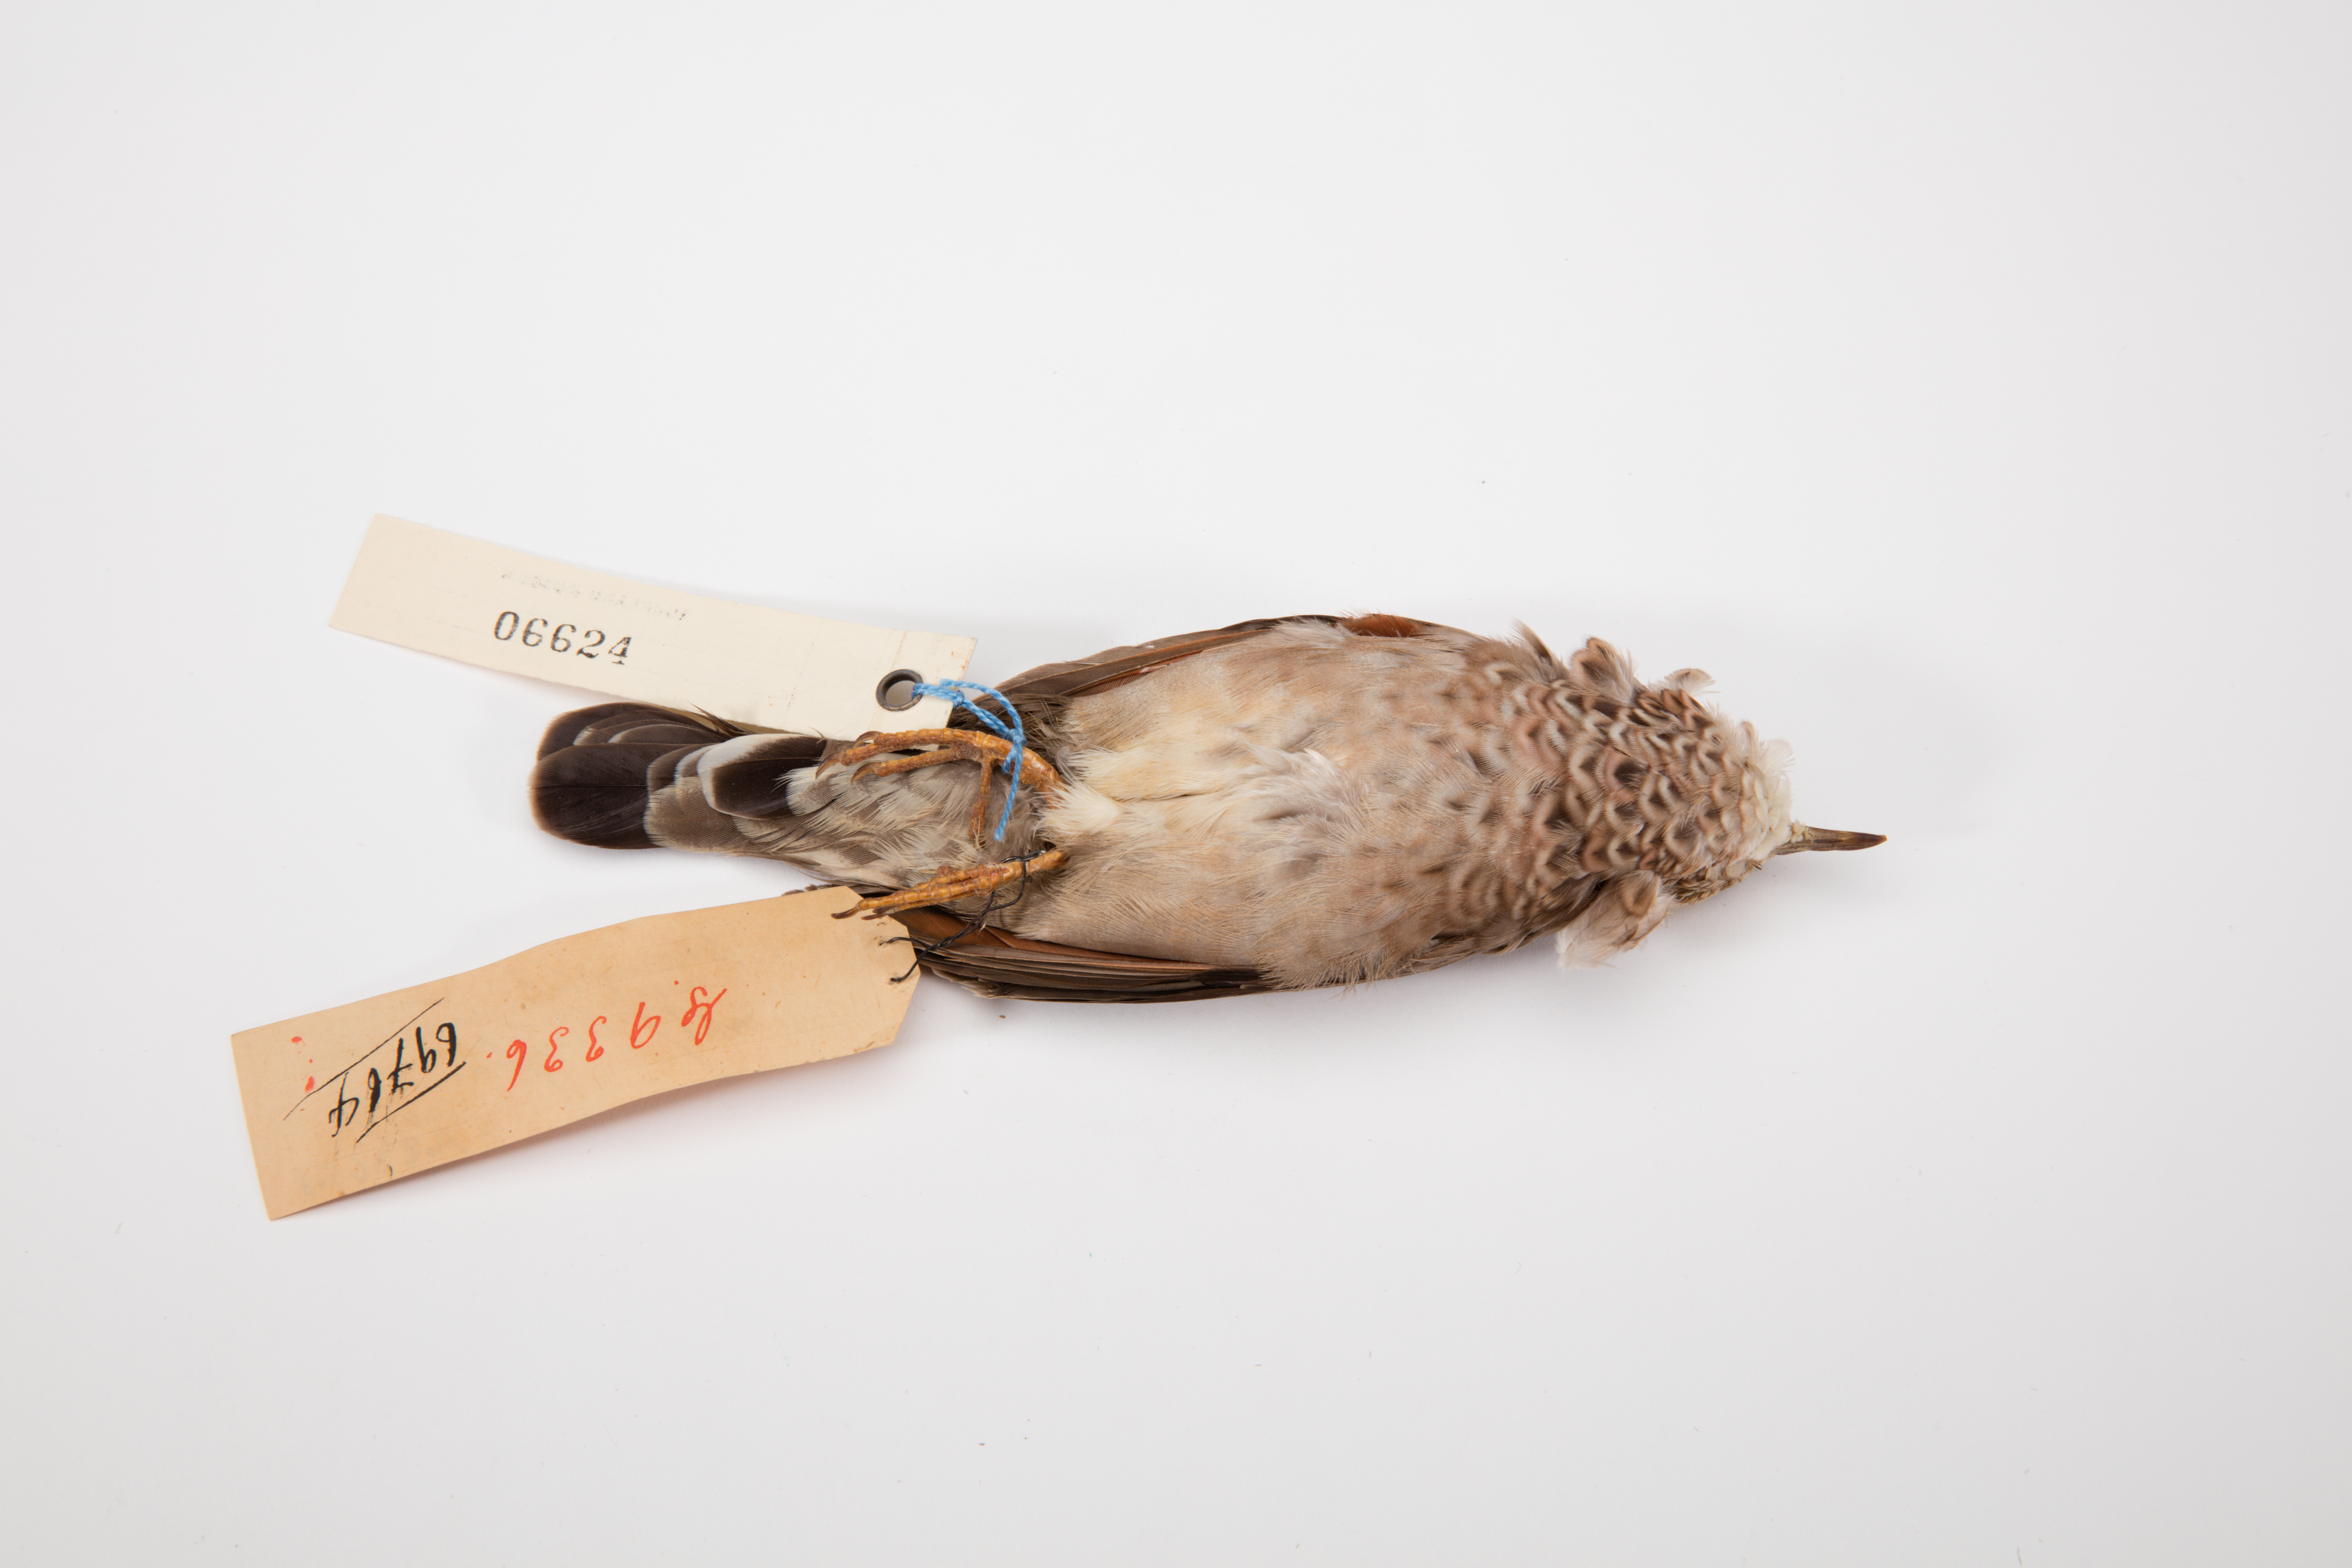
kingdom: Animalia
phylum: Chordata
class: Aves
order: Columbiformes
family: Columbidae
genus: Columbina
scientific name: Columbina passerina
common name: Common ground-dove
